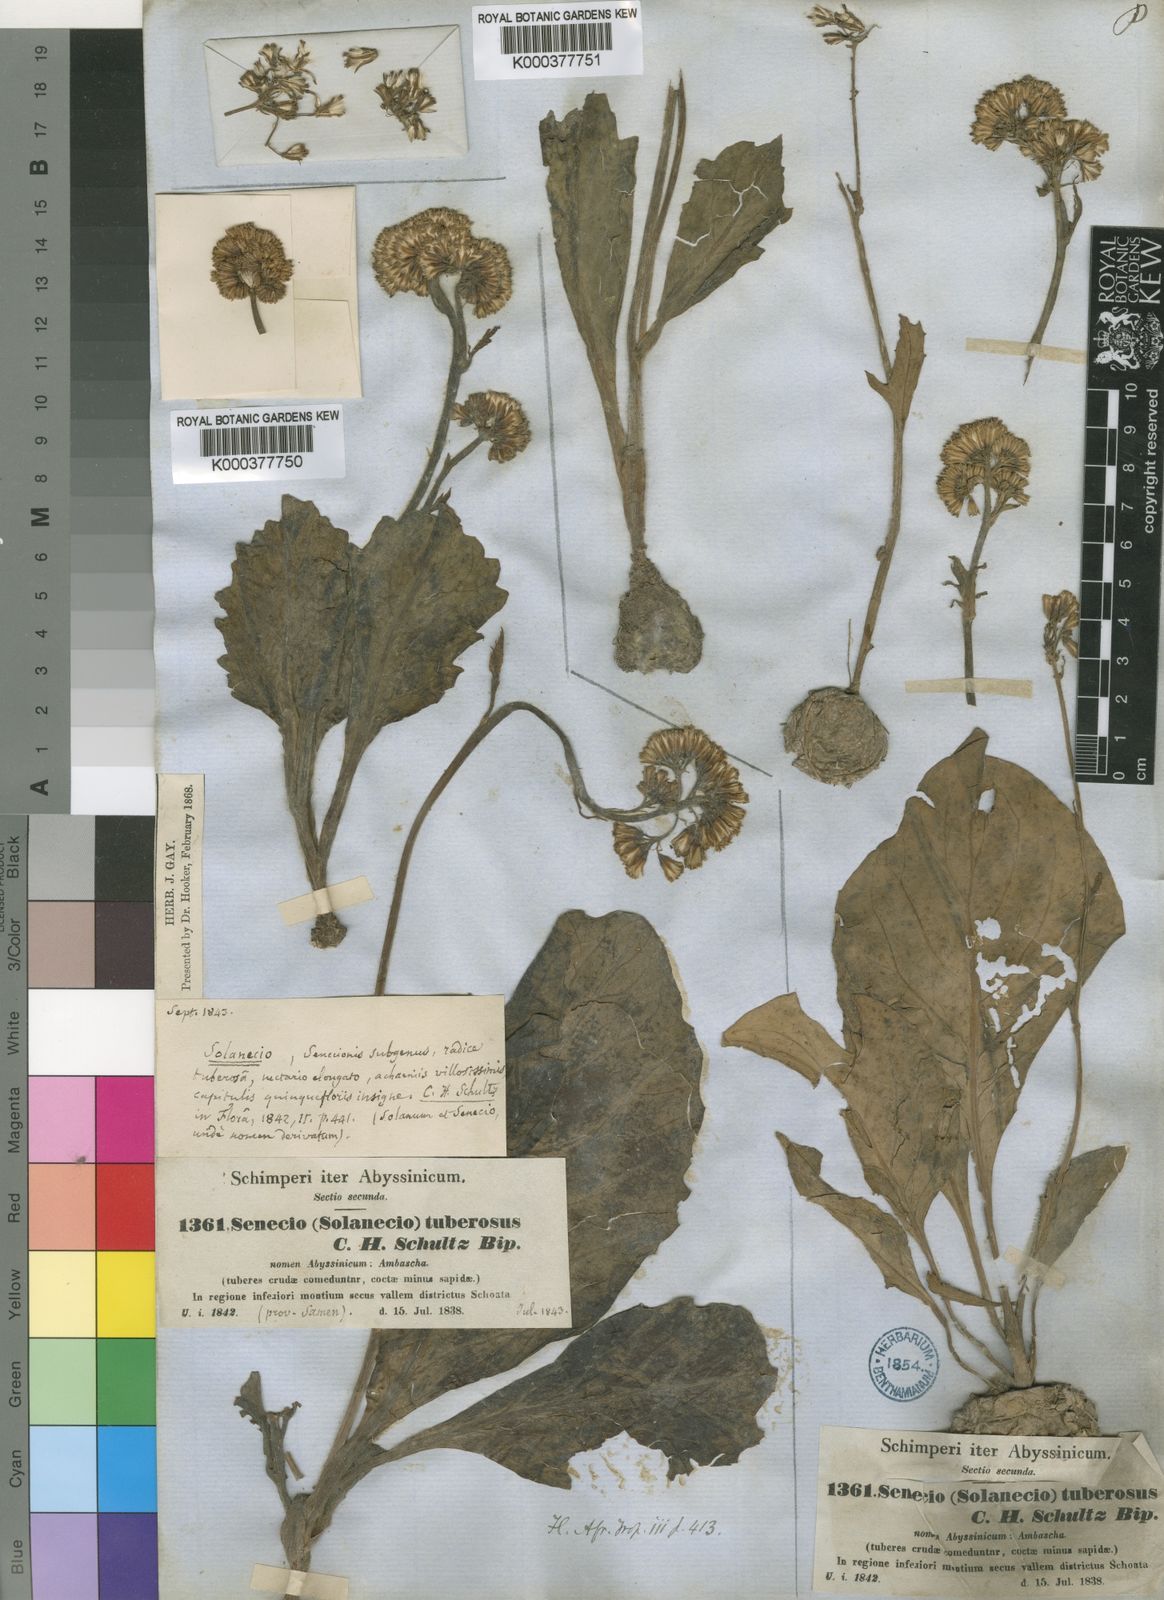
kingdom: Plantae
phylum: Tracheophyta
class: Magnoliopsida
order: Asterales
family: Asteraceae
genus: Solanecio
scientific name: Solanecio nandensis
